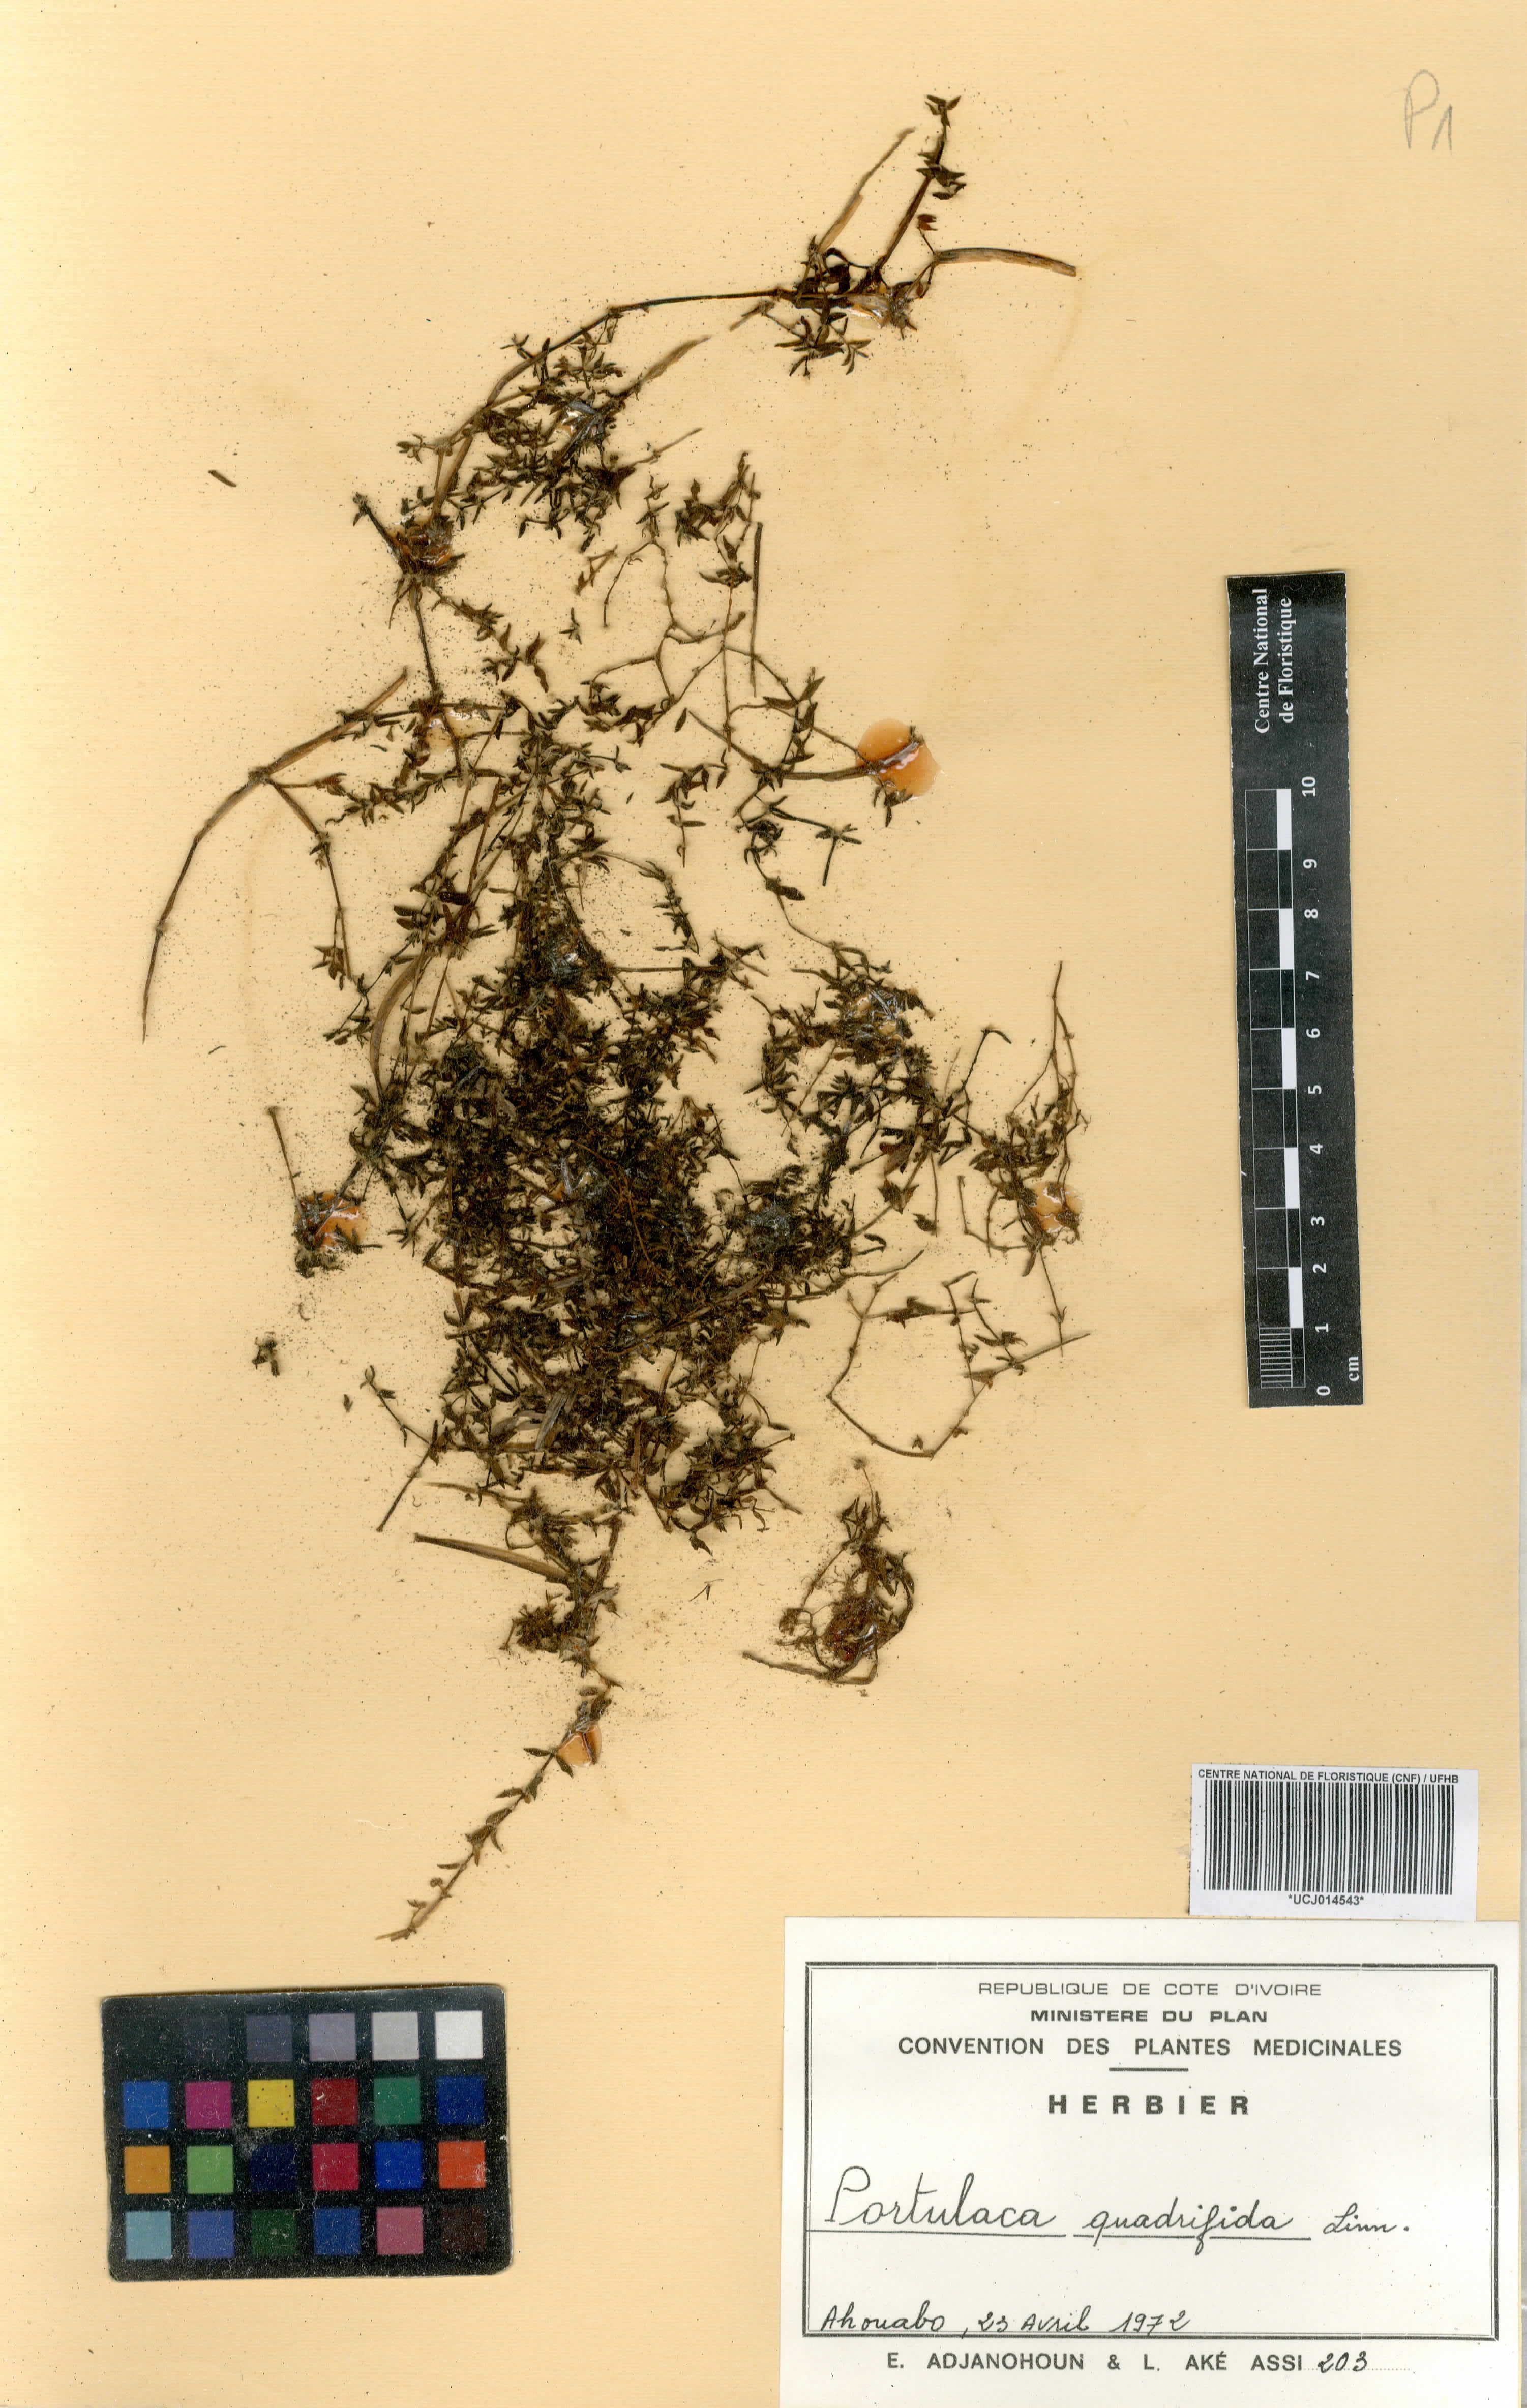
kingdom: Plantae
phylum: Tracheophyta
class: Magnoliopsida
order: Caryophyllales
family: Portulacaceae
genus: Portulaca
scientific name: Portulaca quadrifida
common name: Chickenweed
